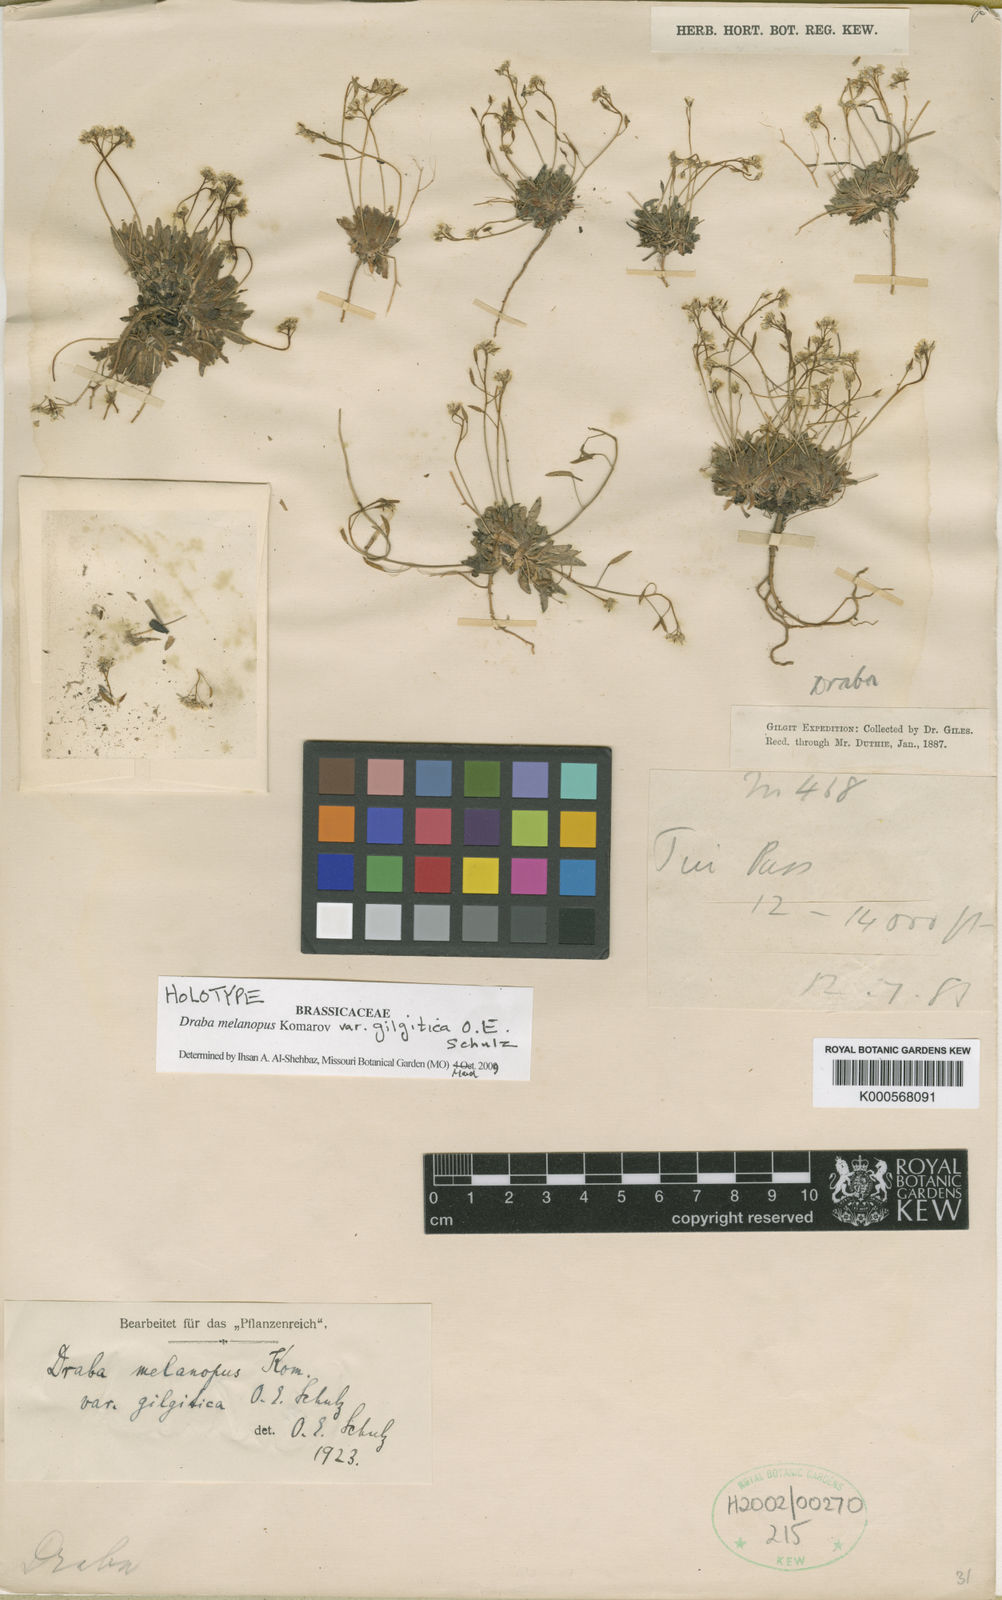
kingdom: Plantae
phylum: Tracheophyta
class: Magnoliopsida
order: Brassicales
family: Brassicaceae
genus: Draba
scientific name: Draba melanopus
